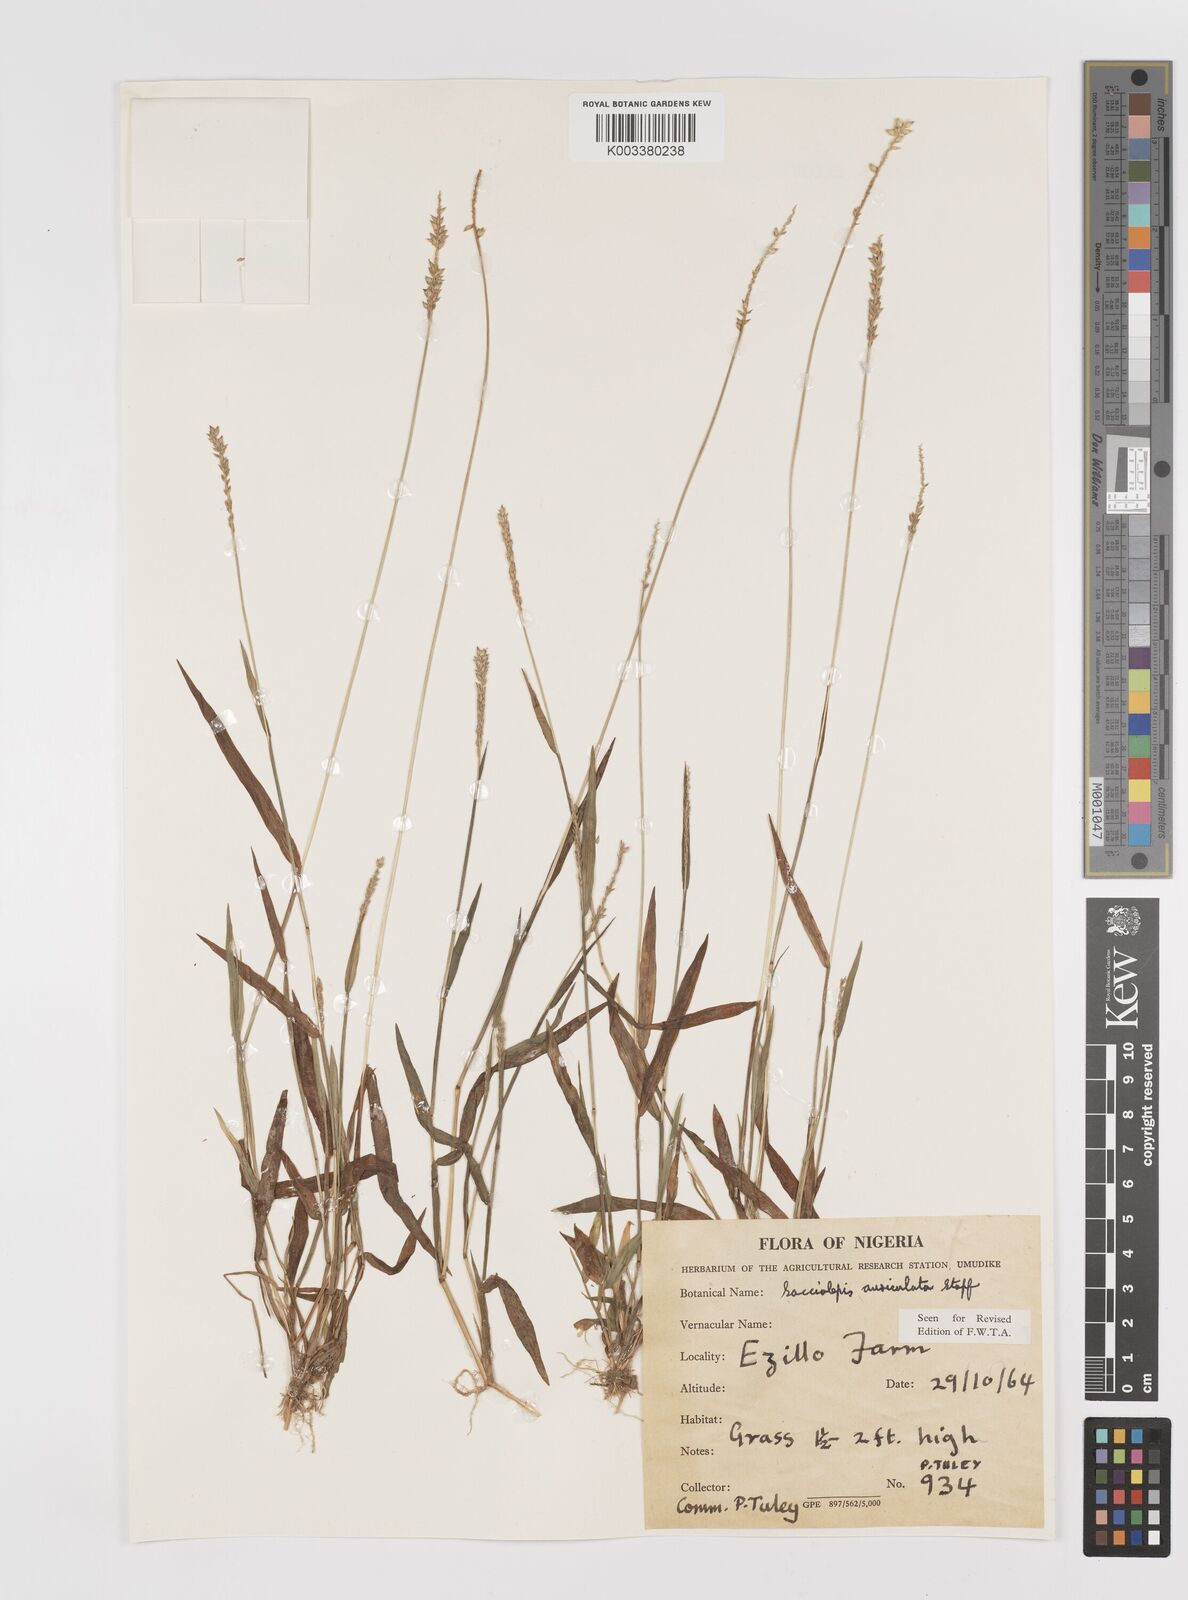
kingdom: Plantae
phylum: Tracheophyta
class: Liliopsida
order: Poales
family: Poaceae
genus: Sacciolepis
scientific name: Sacciolepis indica
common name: Glenwoodgrass
